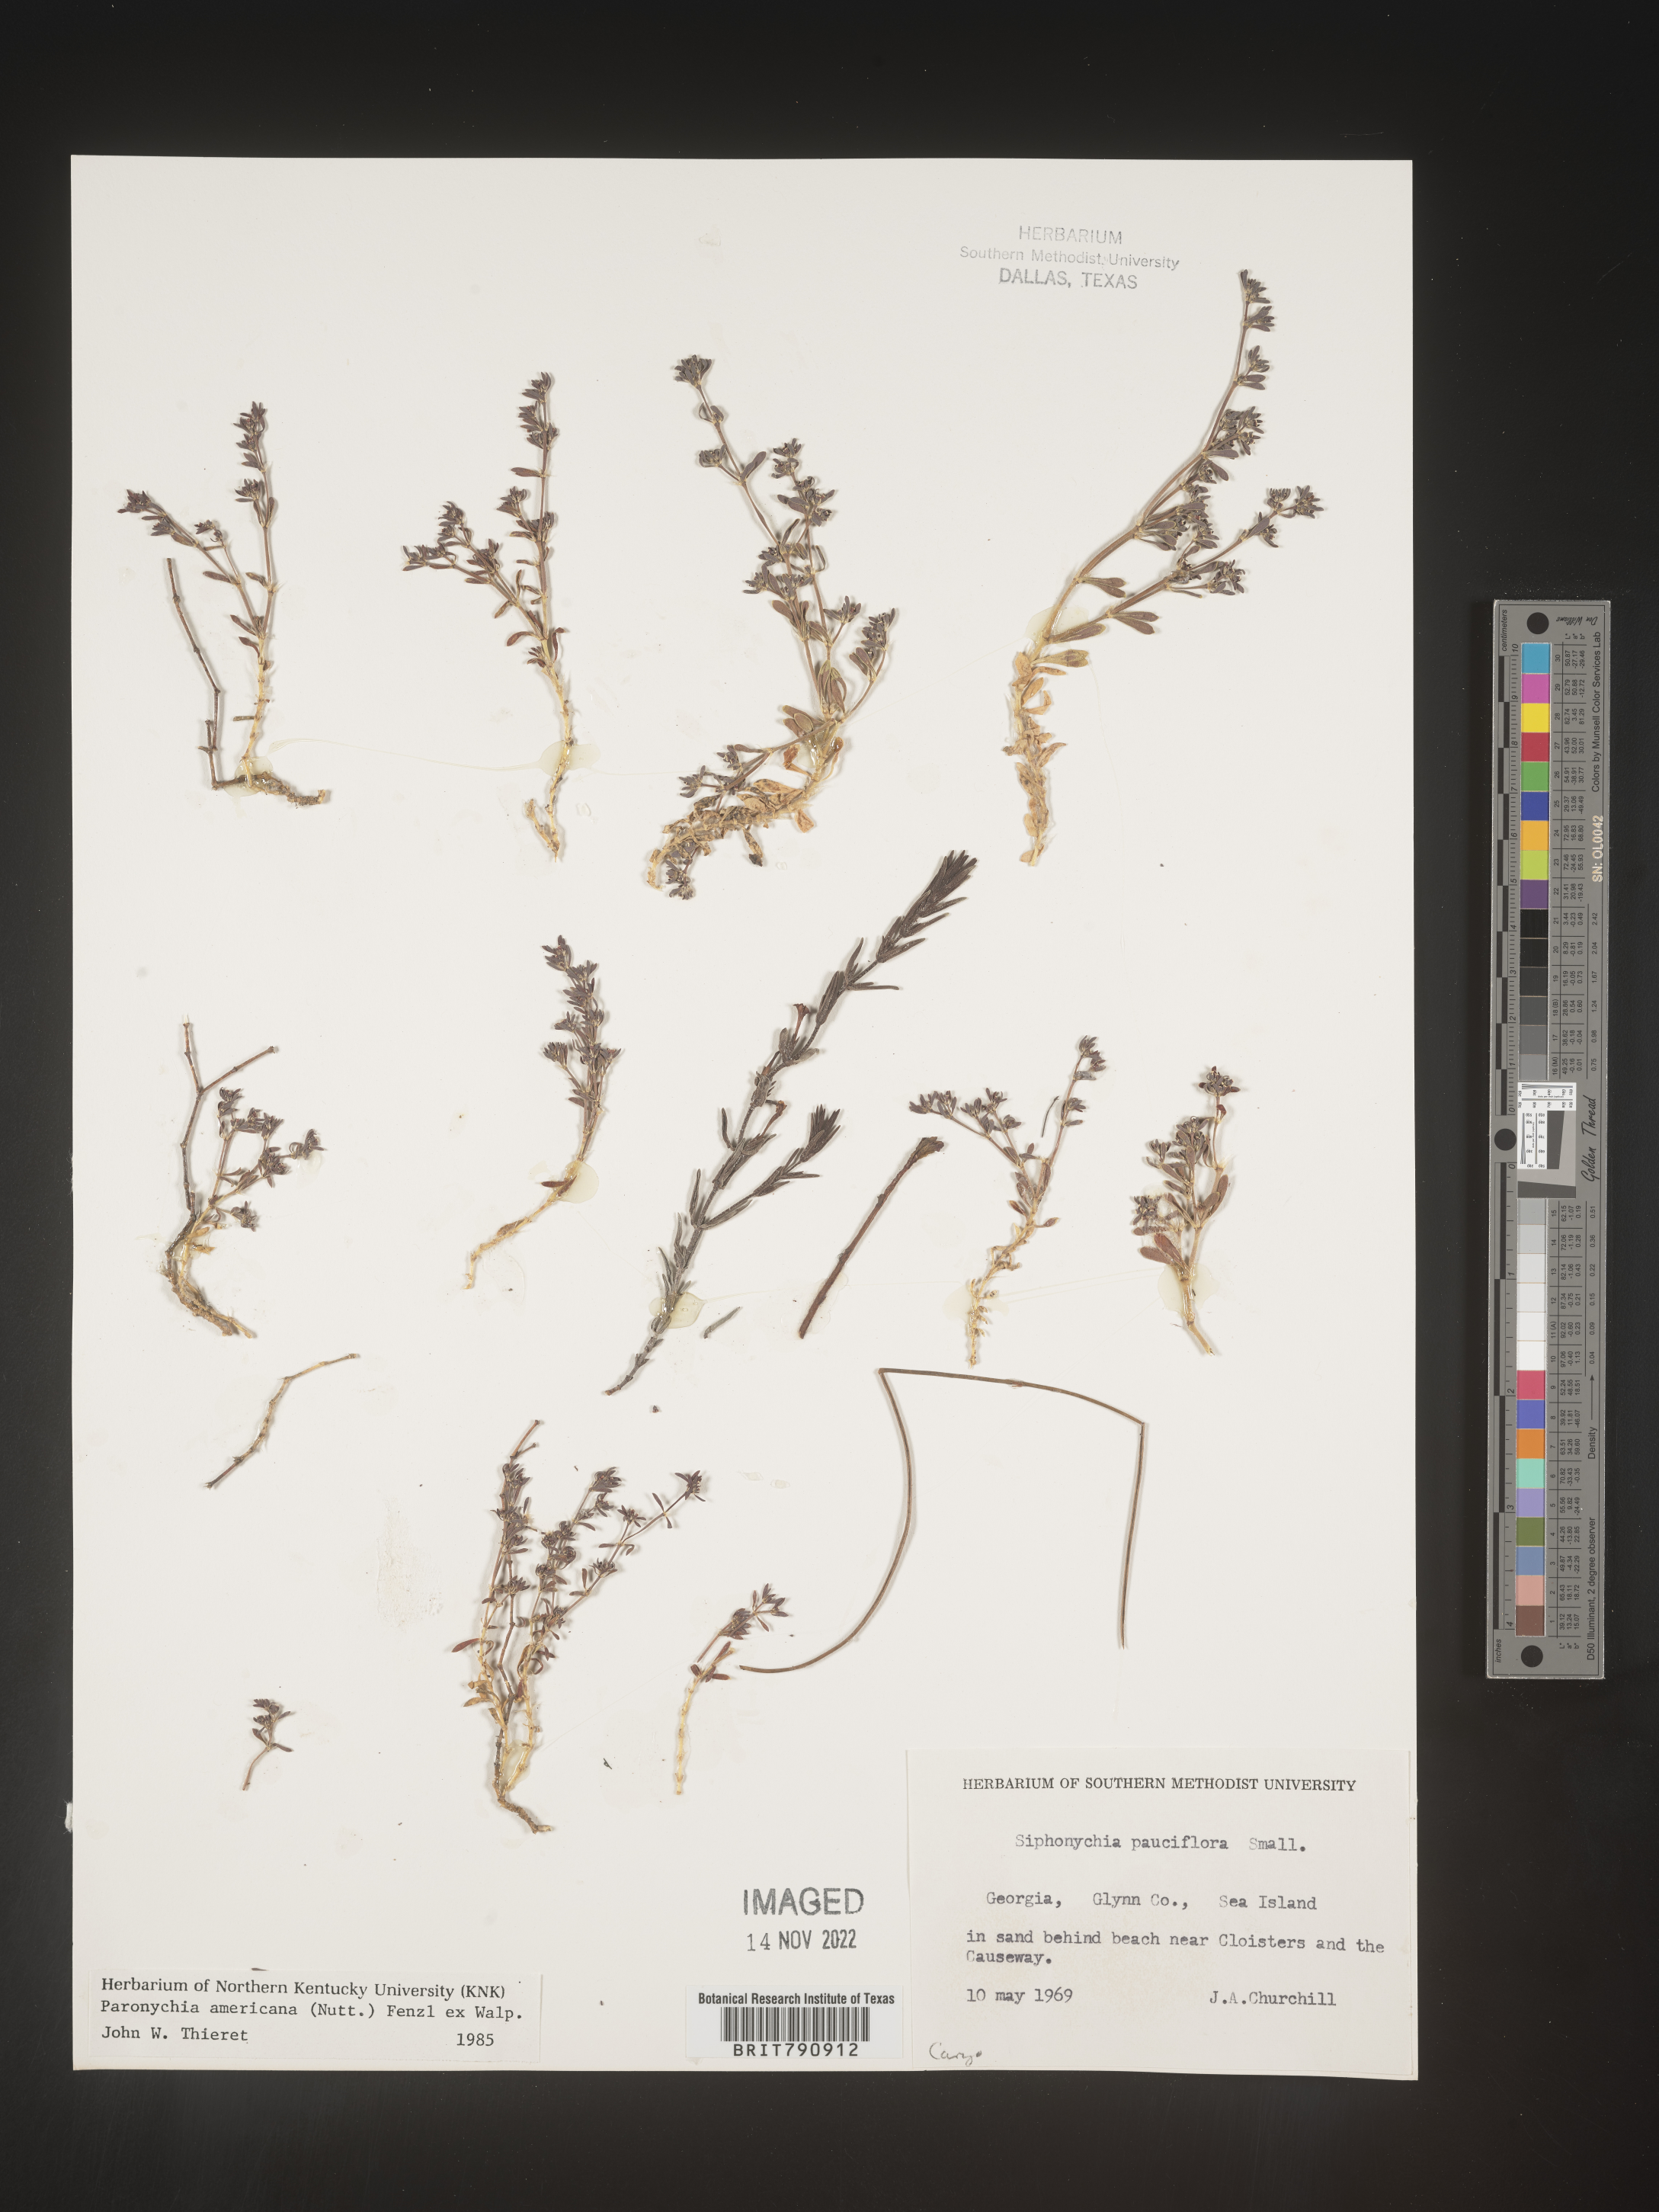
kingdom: Plantae
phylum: Tracheophyta
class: Magnoliopsida
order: Caryophyllales
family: Caryophyllaceae
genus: Paronychia
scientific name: Paronychia americana
